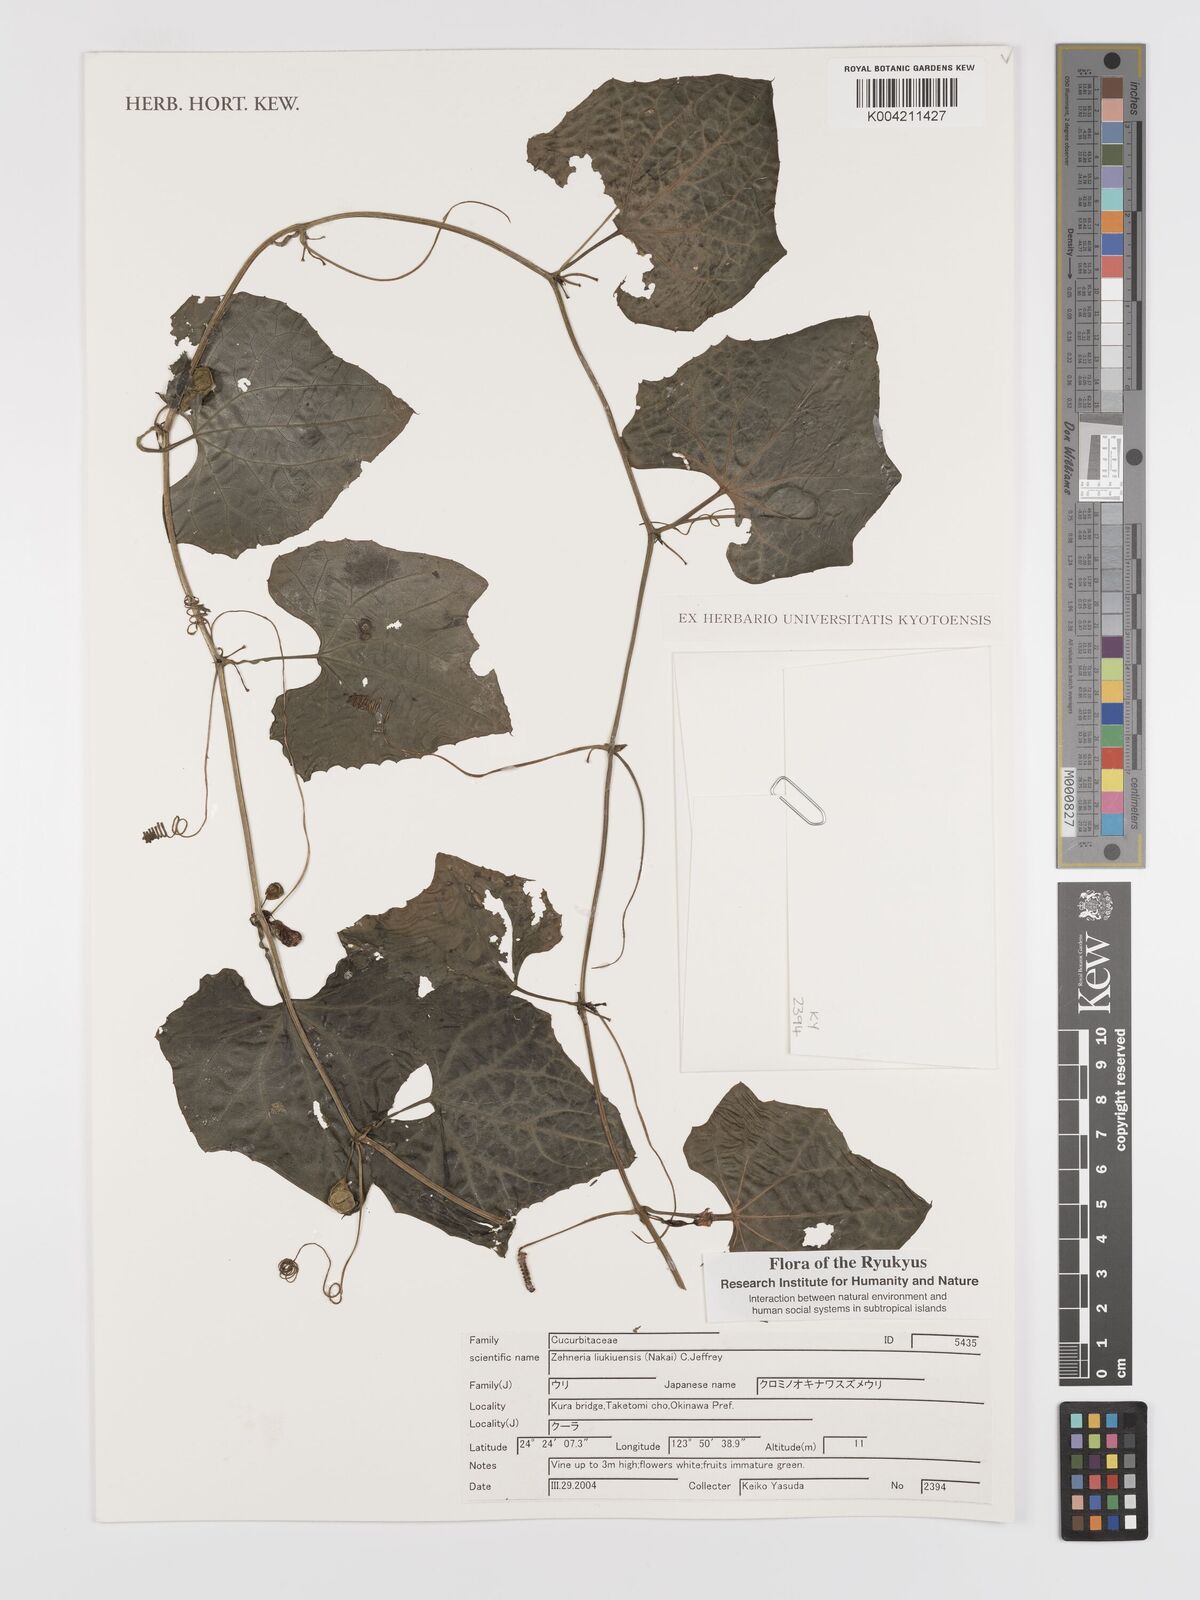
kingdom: Plantae
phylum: Tracheophyta
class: Magnoliopsida
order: Cucurbitales
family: Cucurbitaceae
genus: Zehneria
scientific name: Zehneria liukiuensis
